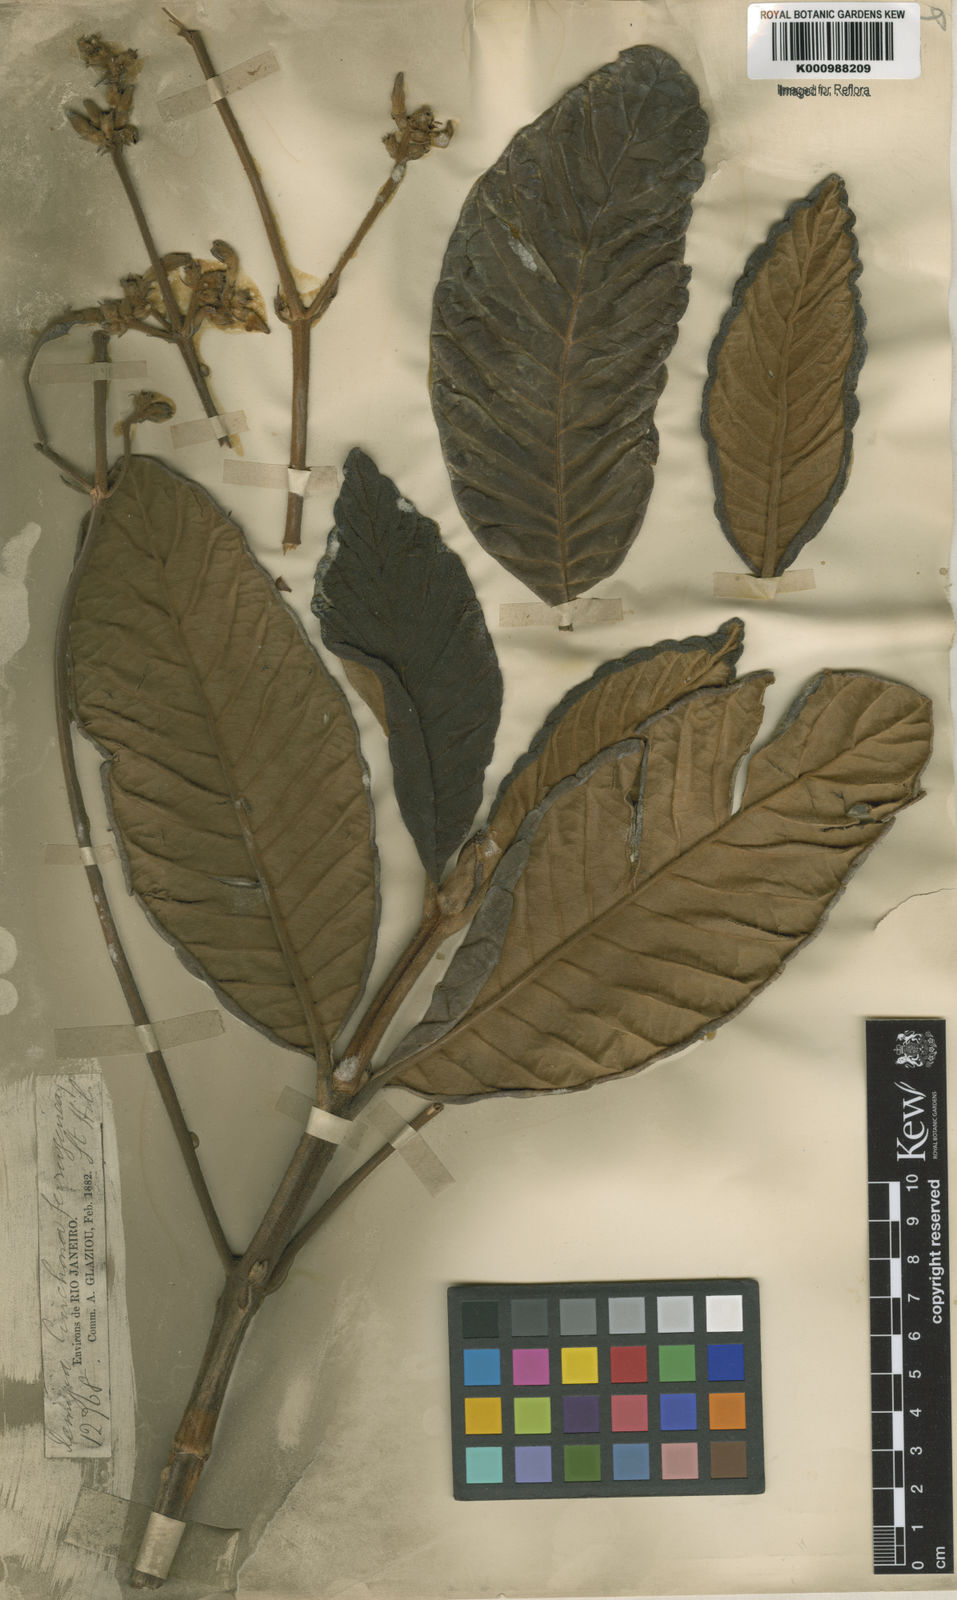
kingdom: Plantae
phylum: Tracheophyta
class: Magnoliopsida
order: Gentianales
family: Rubiaceae
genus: Remijia
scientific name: Remijia ferruginea
